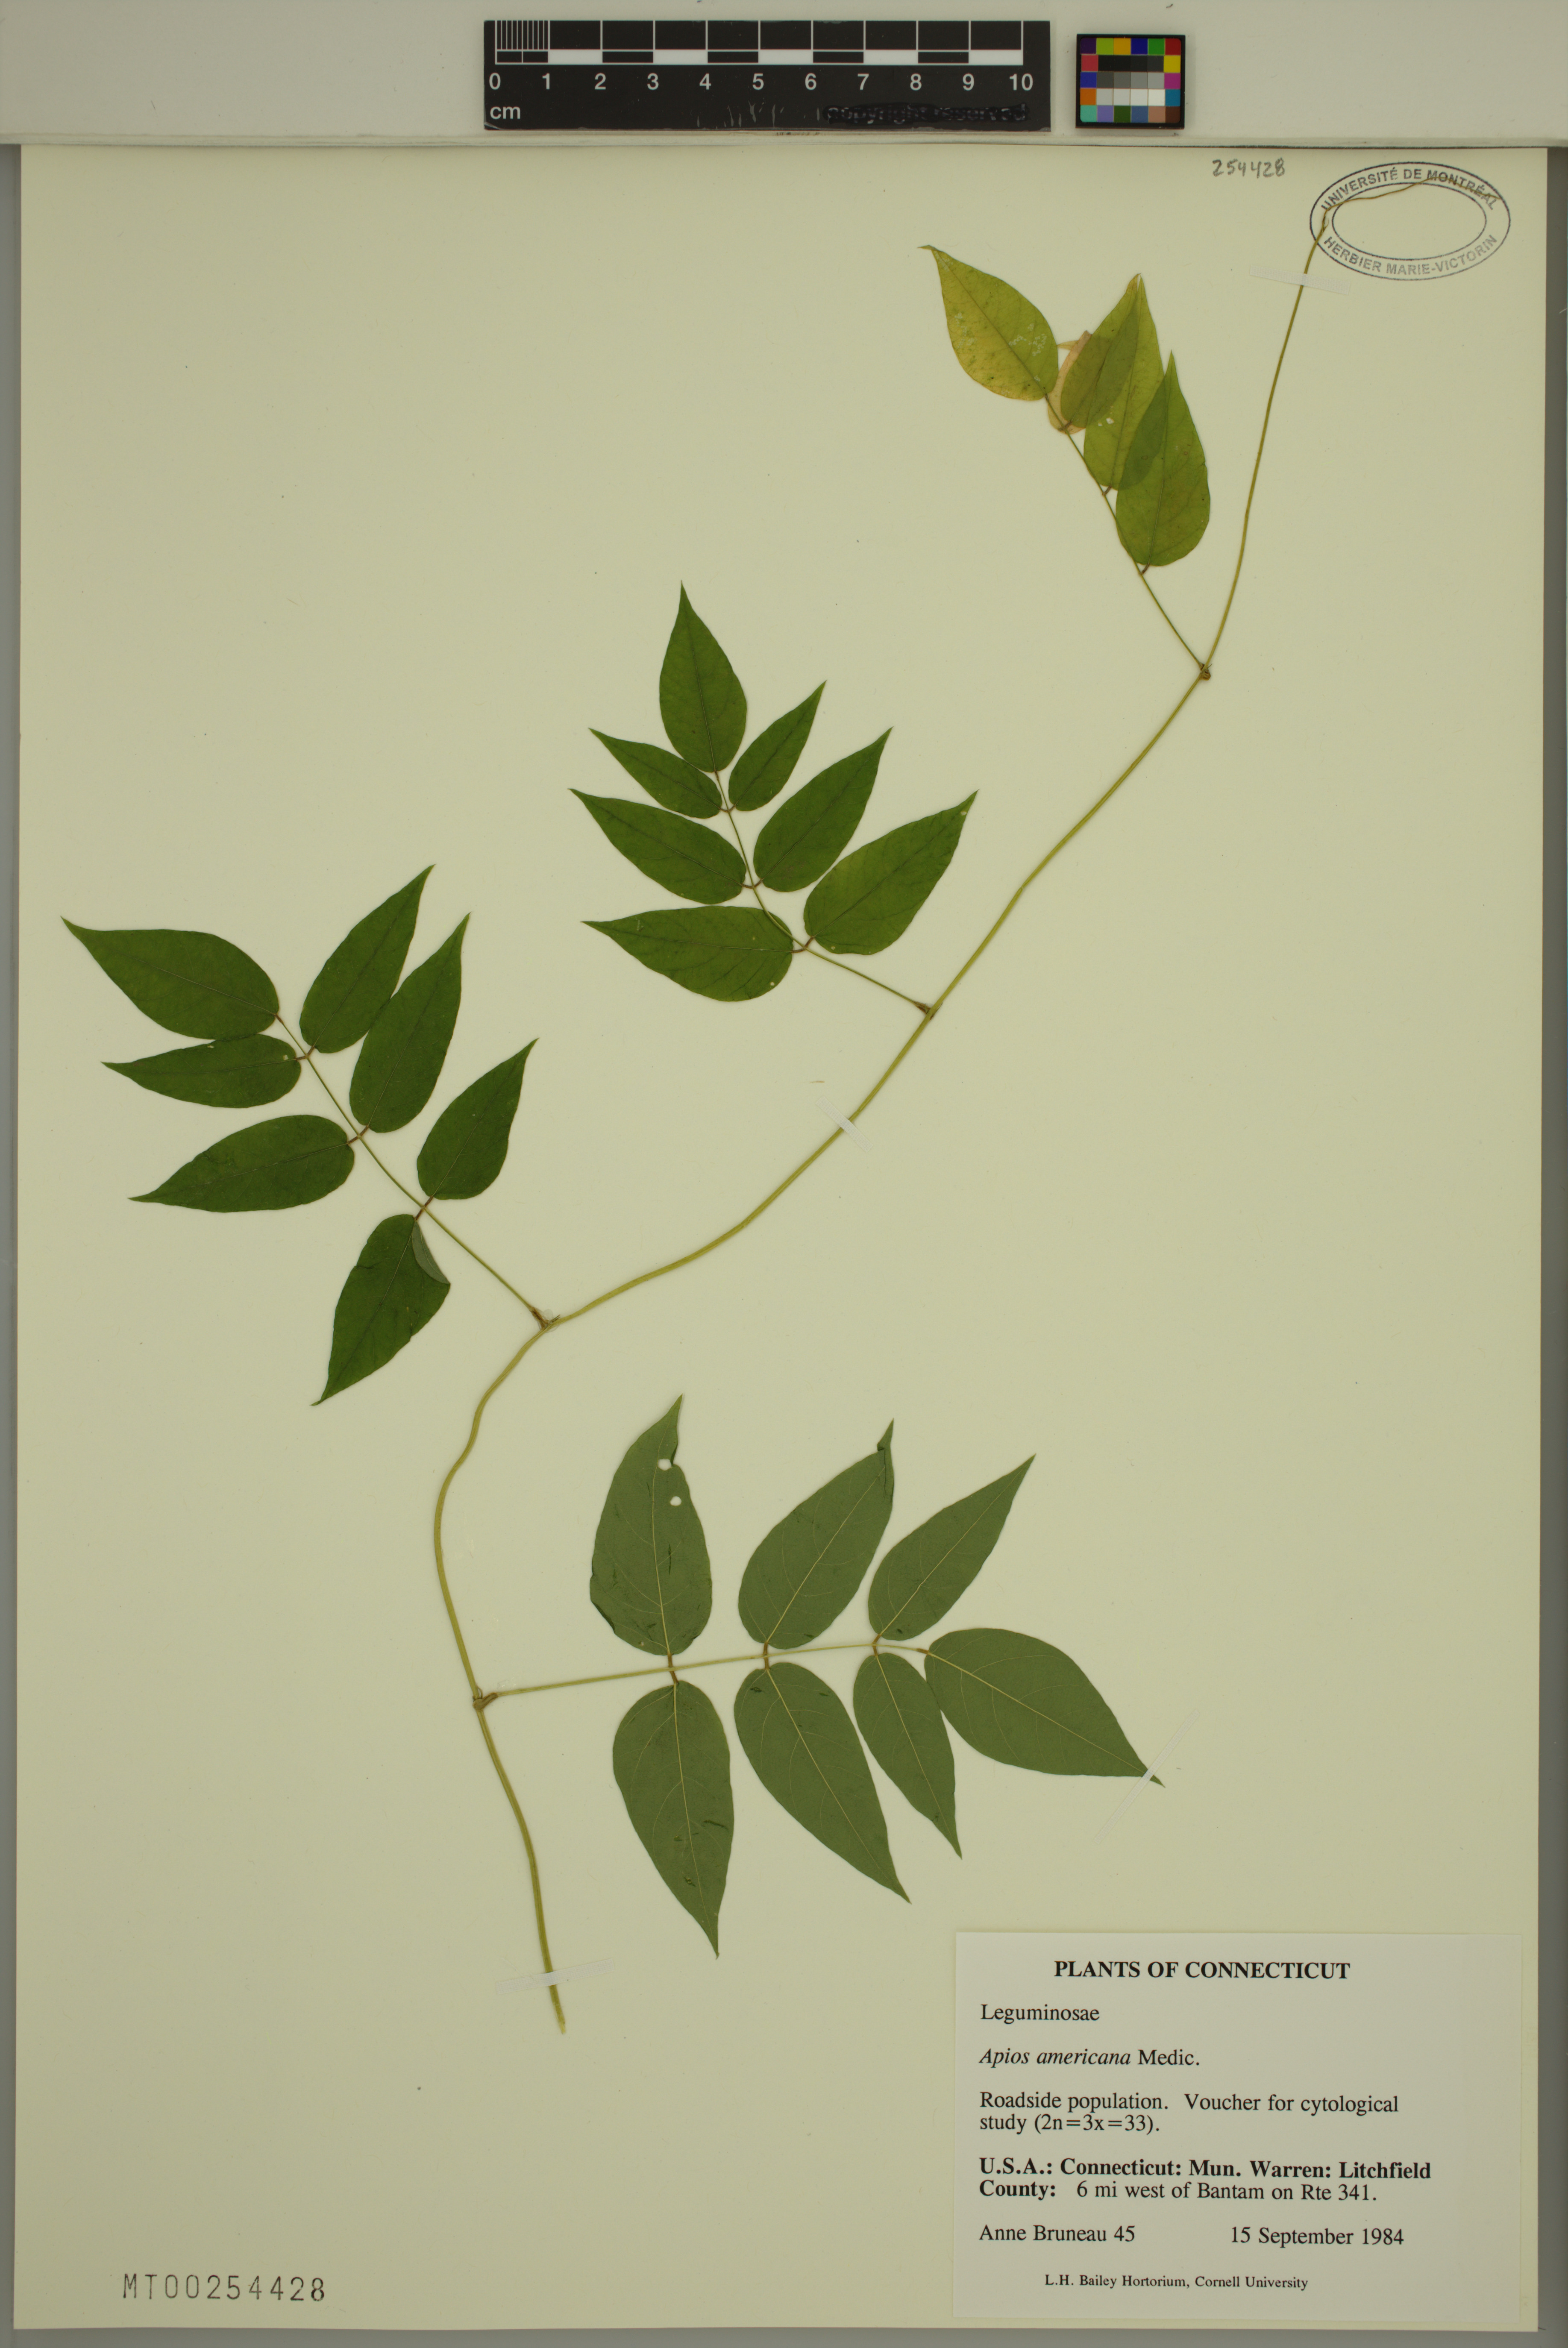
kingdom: Plantae
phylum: Tracheophyta
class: Magnoliopsida
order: Fabales
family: Fabaceae
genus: Apios
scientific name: Apios americana
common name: American potato-bean
